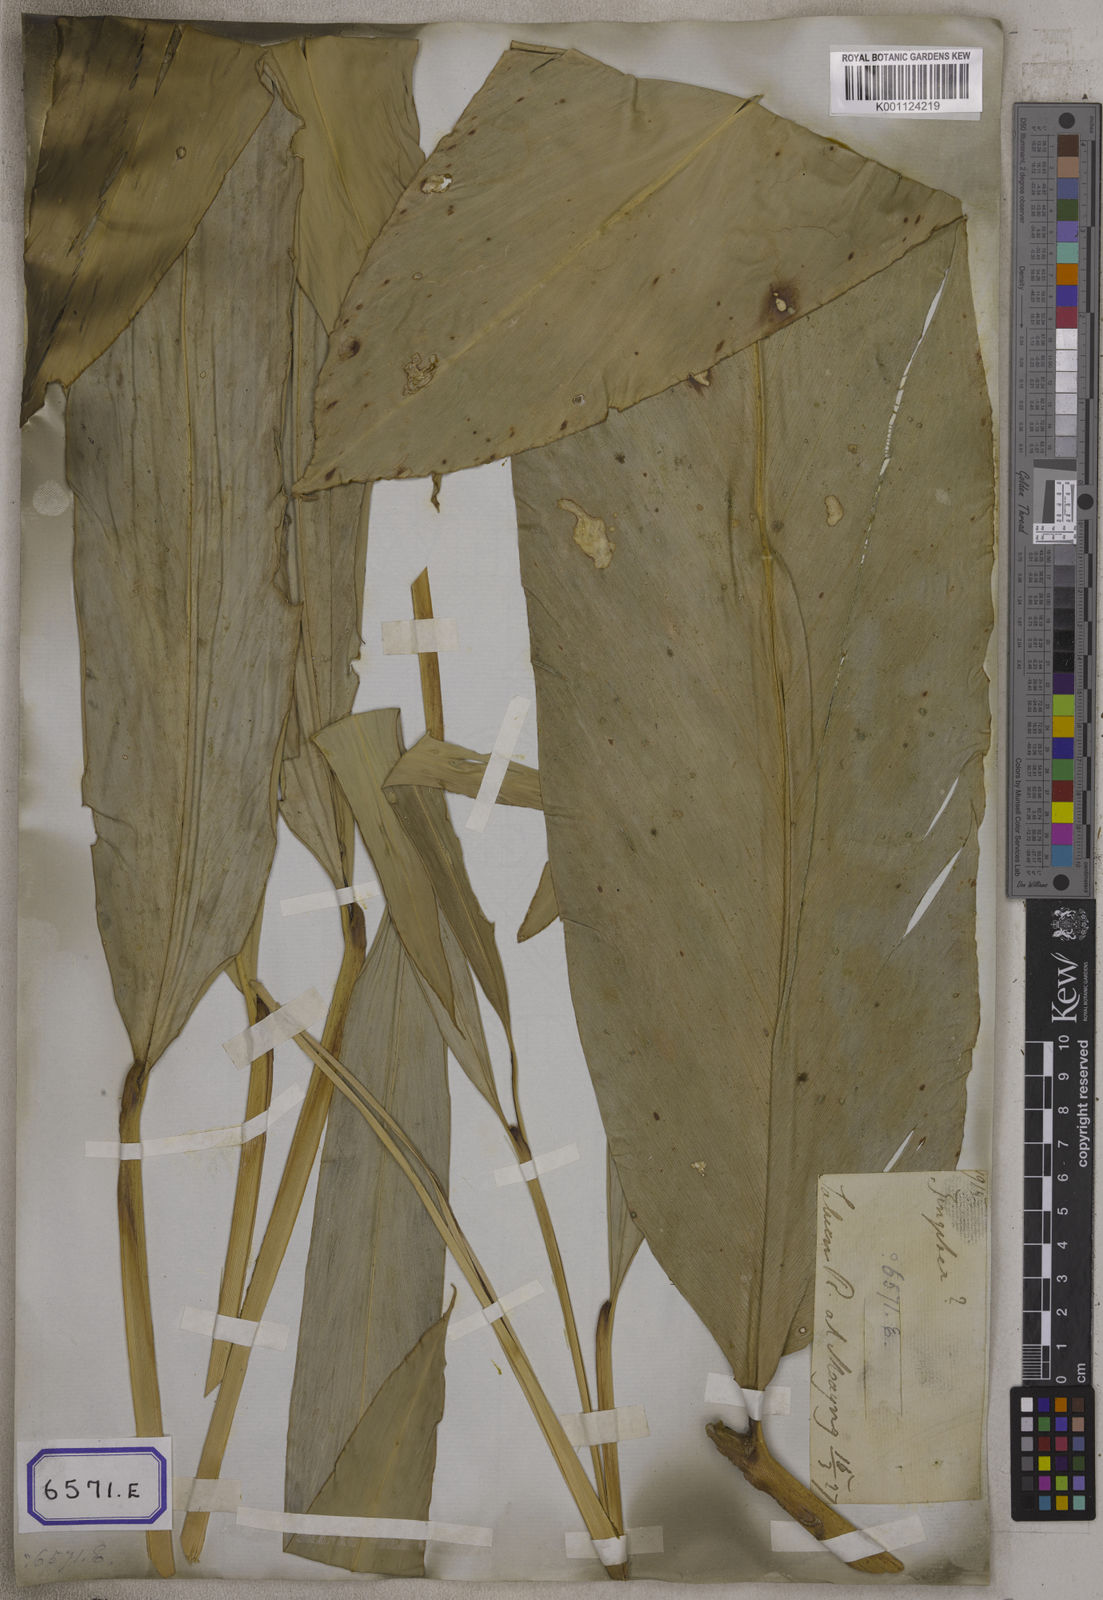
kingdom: Plantae
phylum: Tracheophyta
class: Liliopsida
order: Zingiberales
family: Zingiberaceae
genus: Alpinia
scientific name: Alpinia nigra
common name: Black fruited galanga
